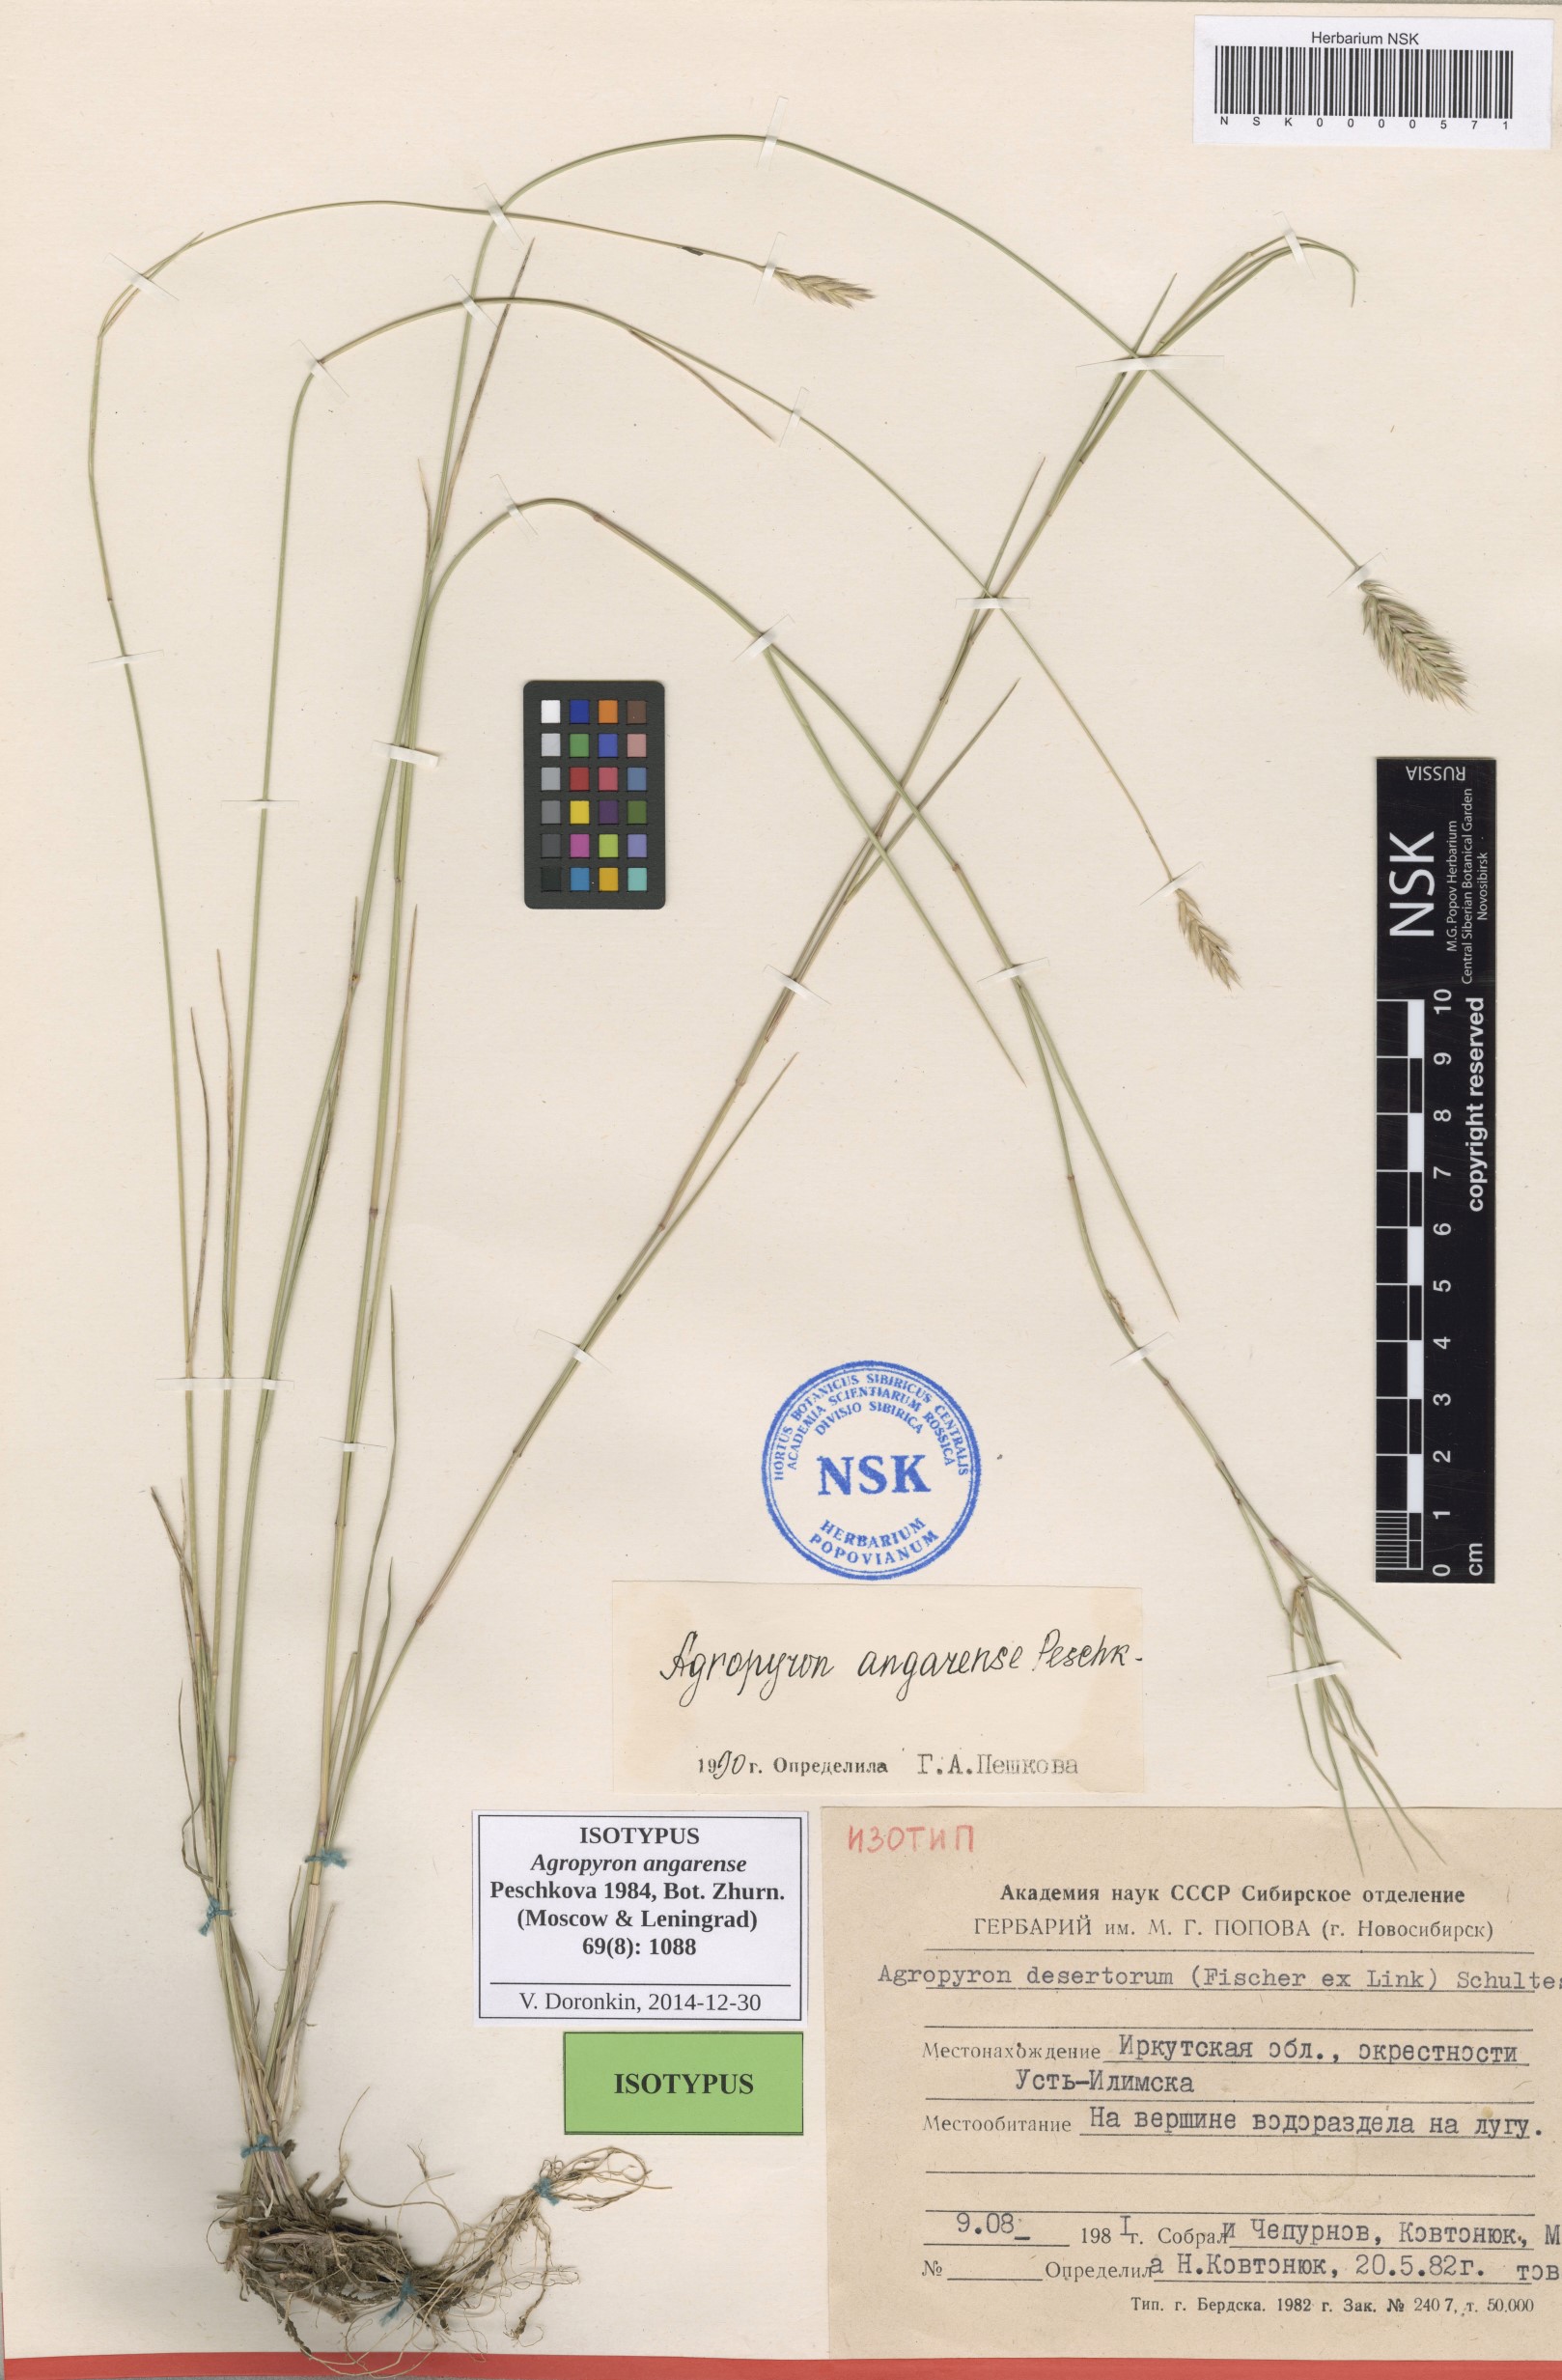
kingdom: Plantae
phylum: Tracheophyta
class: Liliopsida
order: Poales
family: Poaceae
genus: Agropyron
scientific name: Agropyron desertorum
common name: Desert wheatgrass
